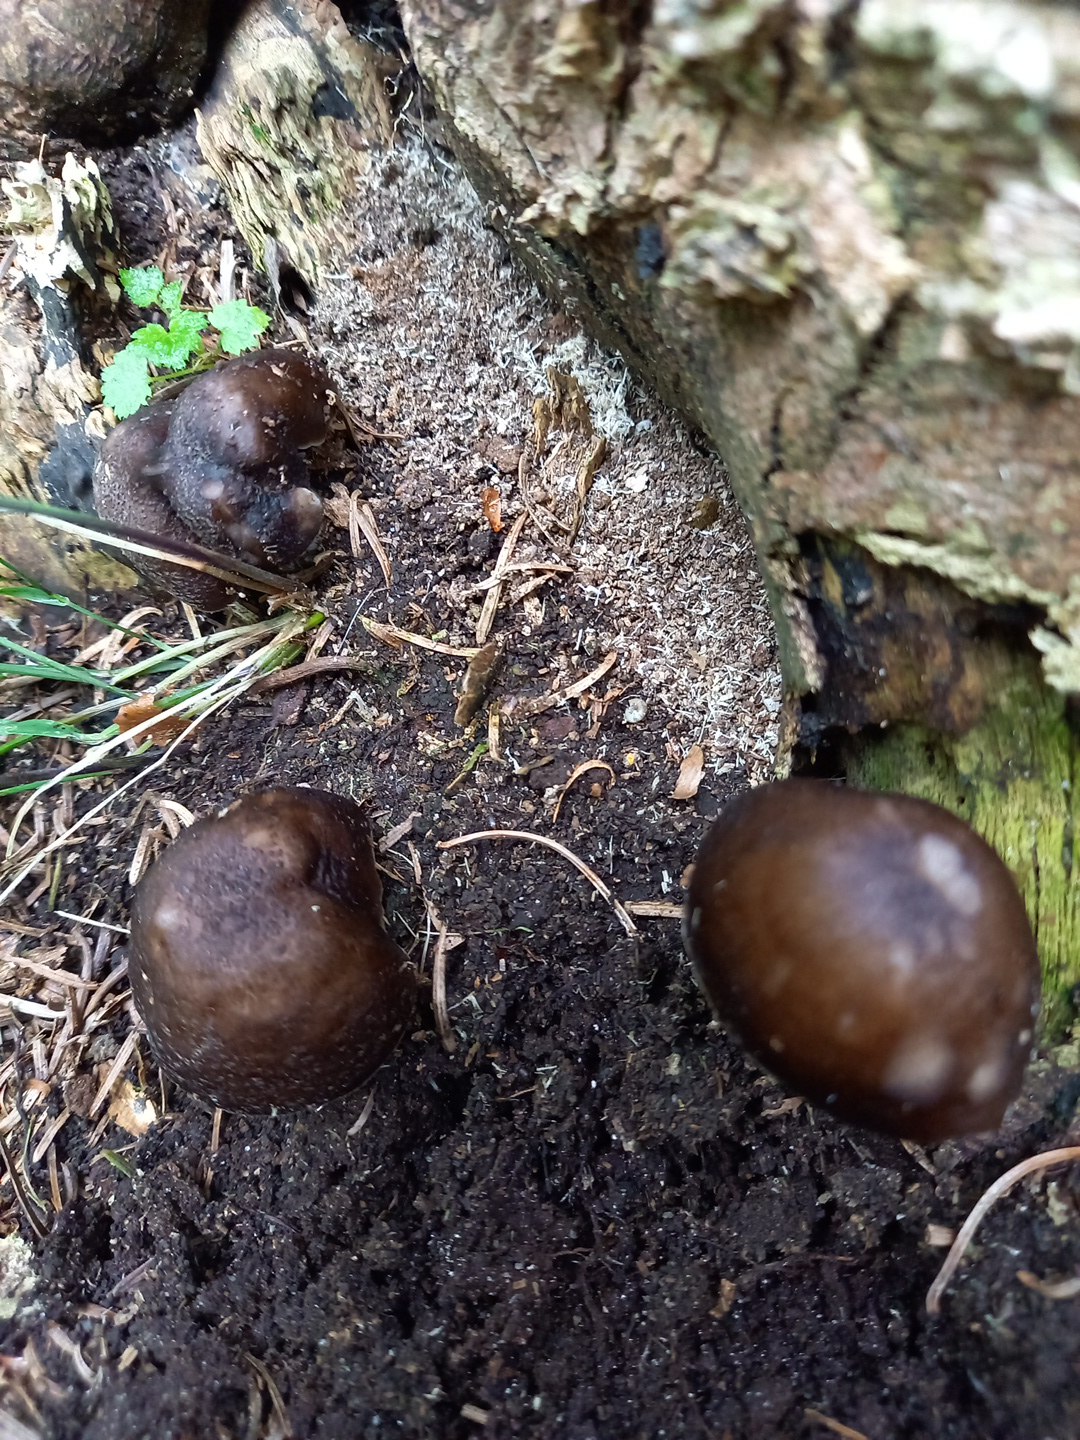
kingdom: Fungi
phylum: Basidiomycota
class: Agaricomycetes
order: Agaricales
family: Pluteaceae
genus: Pluteus
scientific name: Pluteus cervinus
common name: sodfarvet skærmhat
